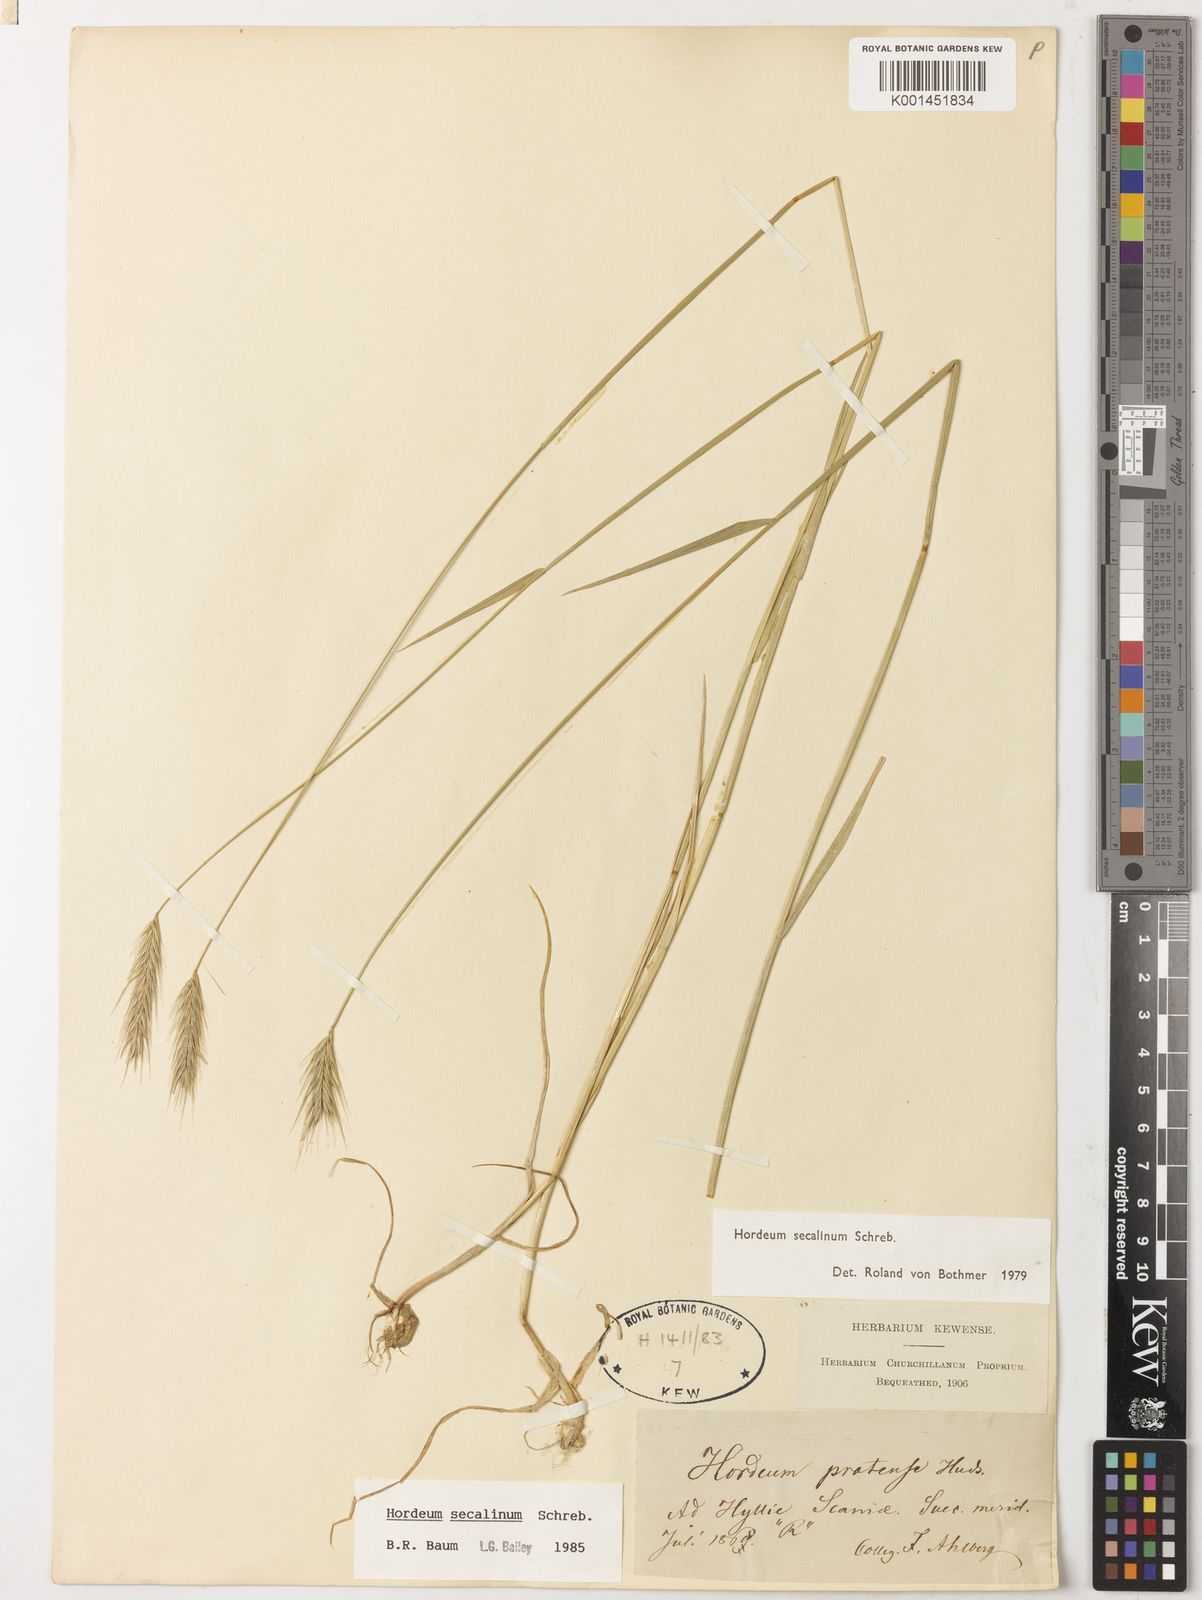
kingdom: Plantae
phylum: Tracheophyta
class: Liliopsida
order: Poales
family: Poaceae
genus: Hordeum
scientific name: Hordeum secalinum
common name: Meadow barley
